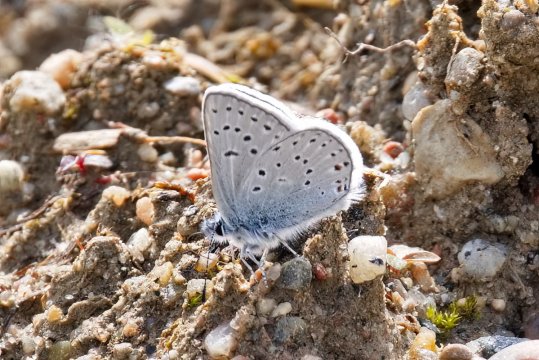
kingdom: Animalia
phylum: Arthropoda
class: Insecta
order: Lepidoptera
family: Lycaenidae
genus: Plebejus
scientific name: Plebejus saepiolus
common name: Greenish Blue
